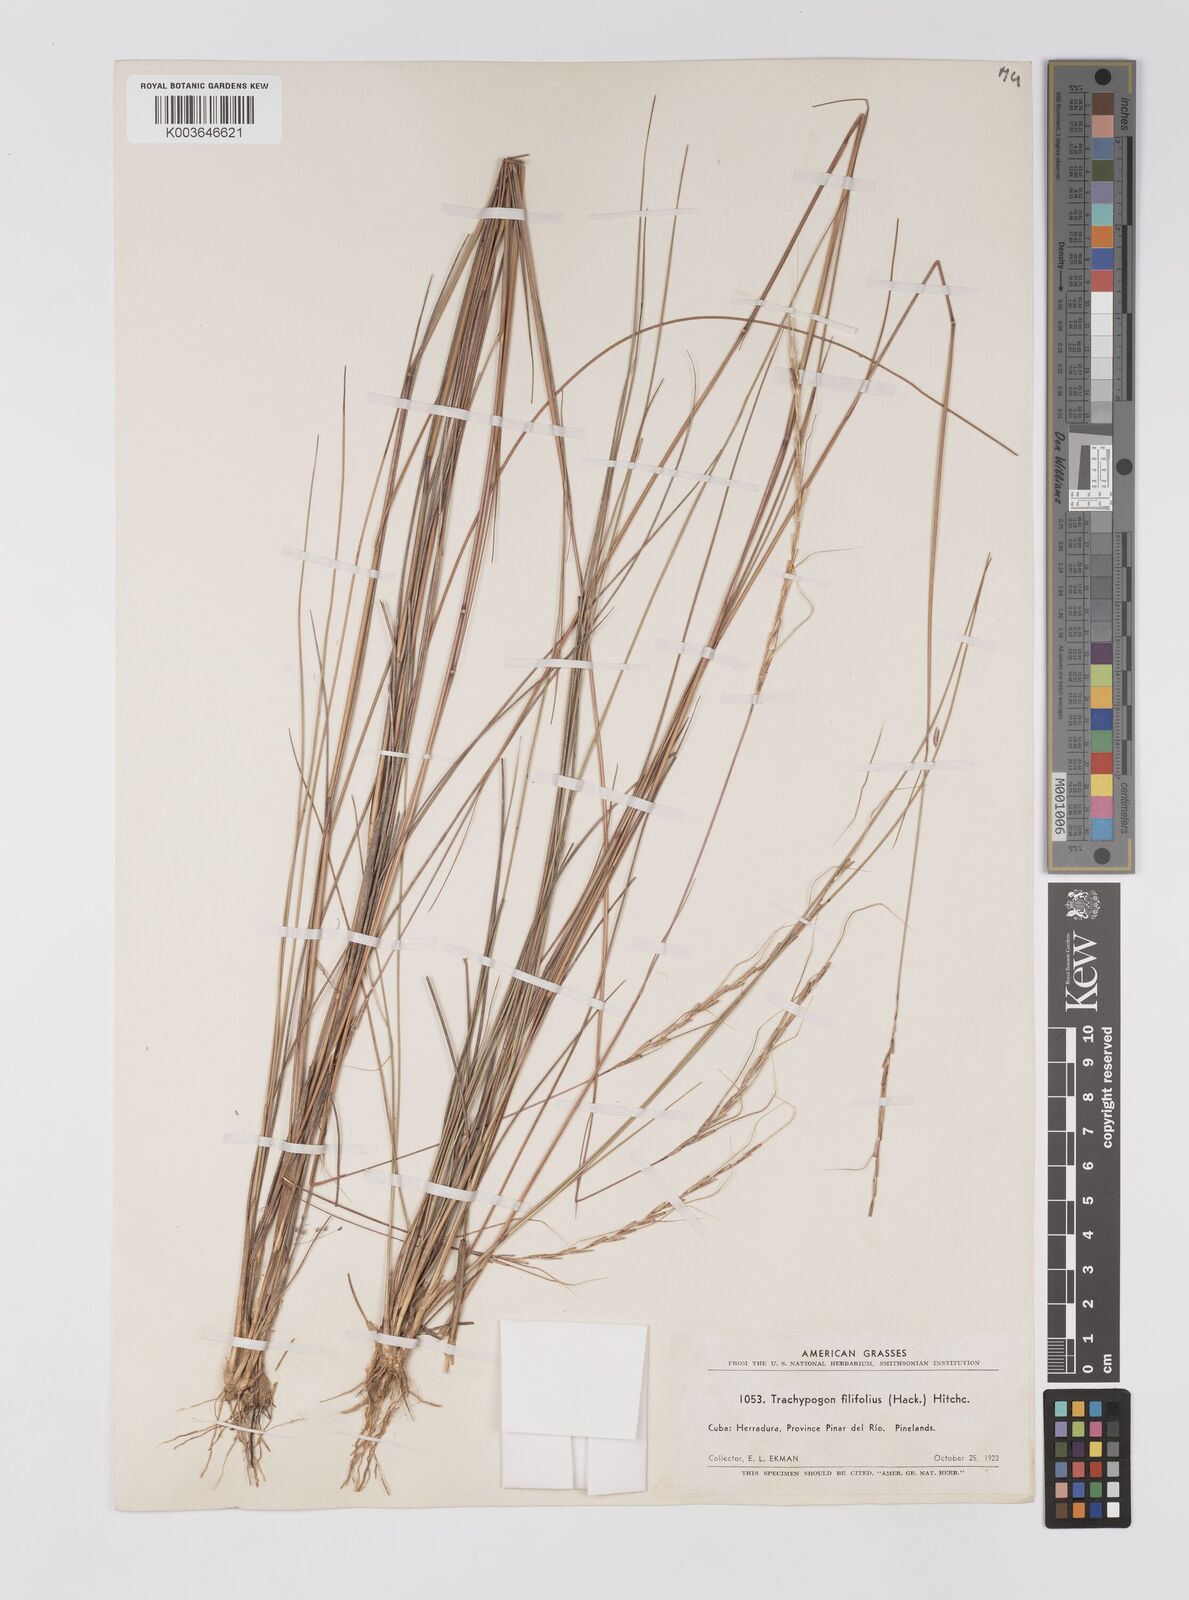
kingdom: Plantae
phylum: Tracheophyta
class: Liliopsida
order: Poales
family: Poaceae
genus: Trachypogon
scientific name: Trachypogon macroglossus
